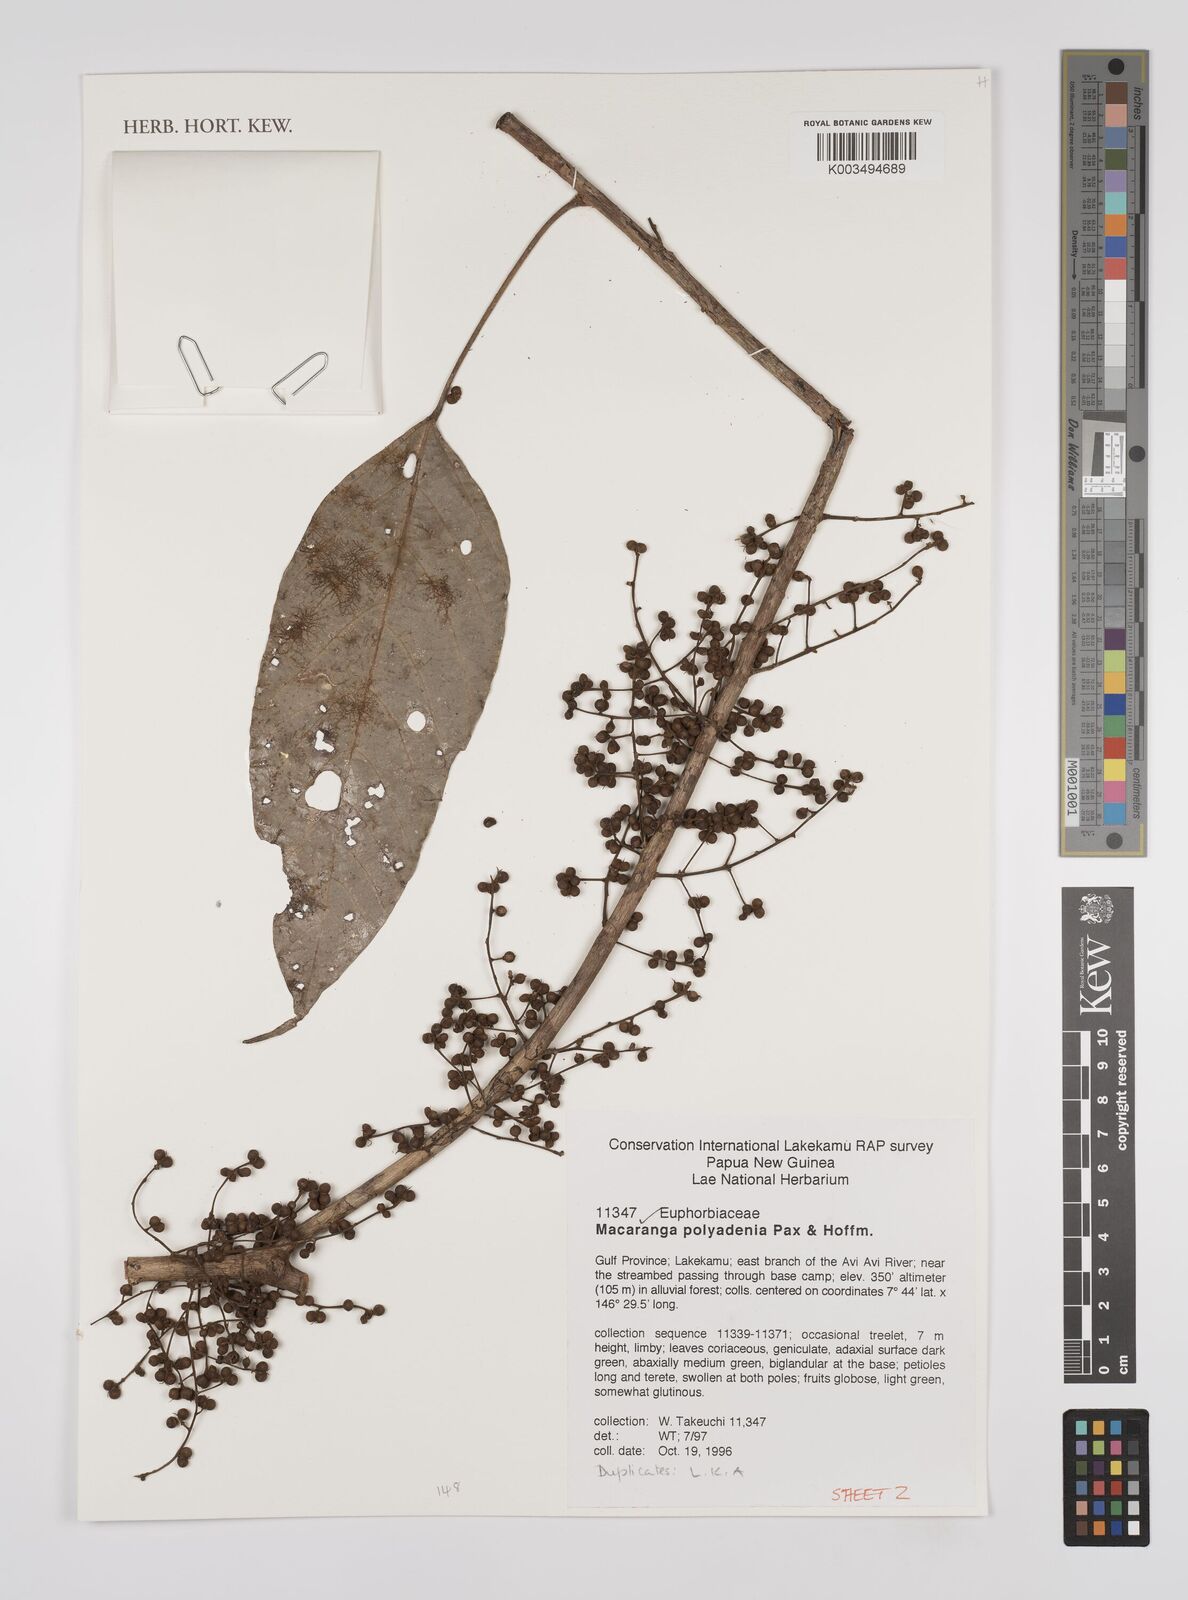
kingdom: Plantae
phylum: Tracheophyta
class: Magnoliopsida
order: Malpighiales
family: Euphorbiaceae
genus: Macaranga
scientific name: Macaranga polyadenia
